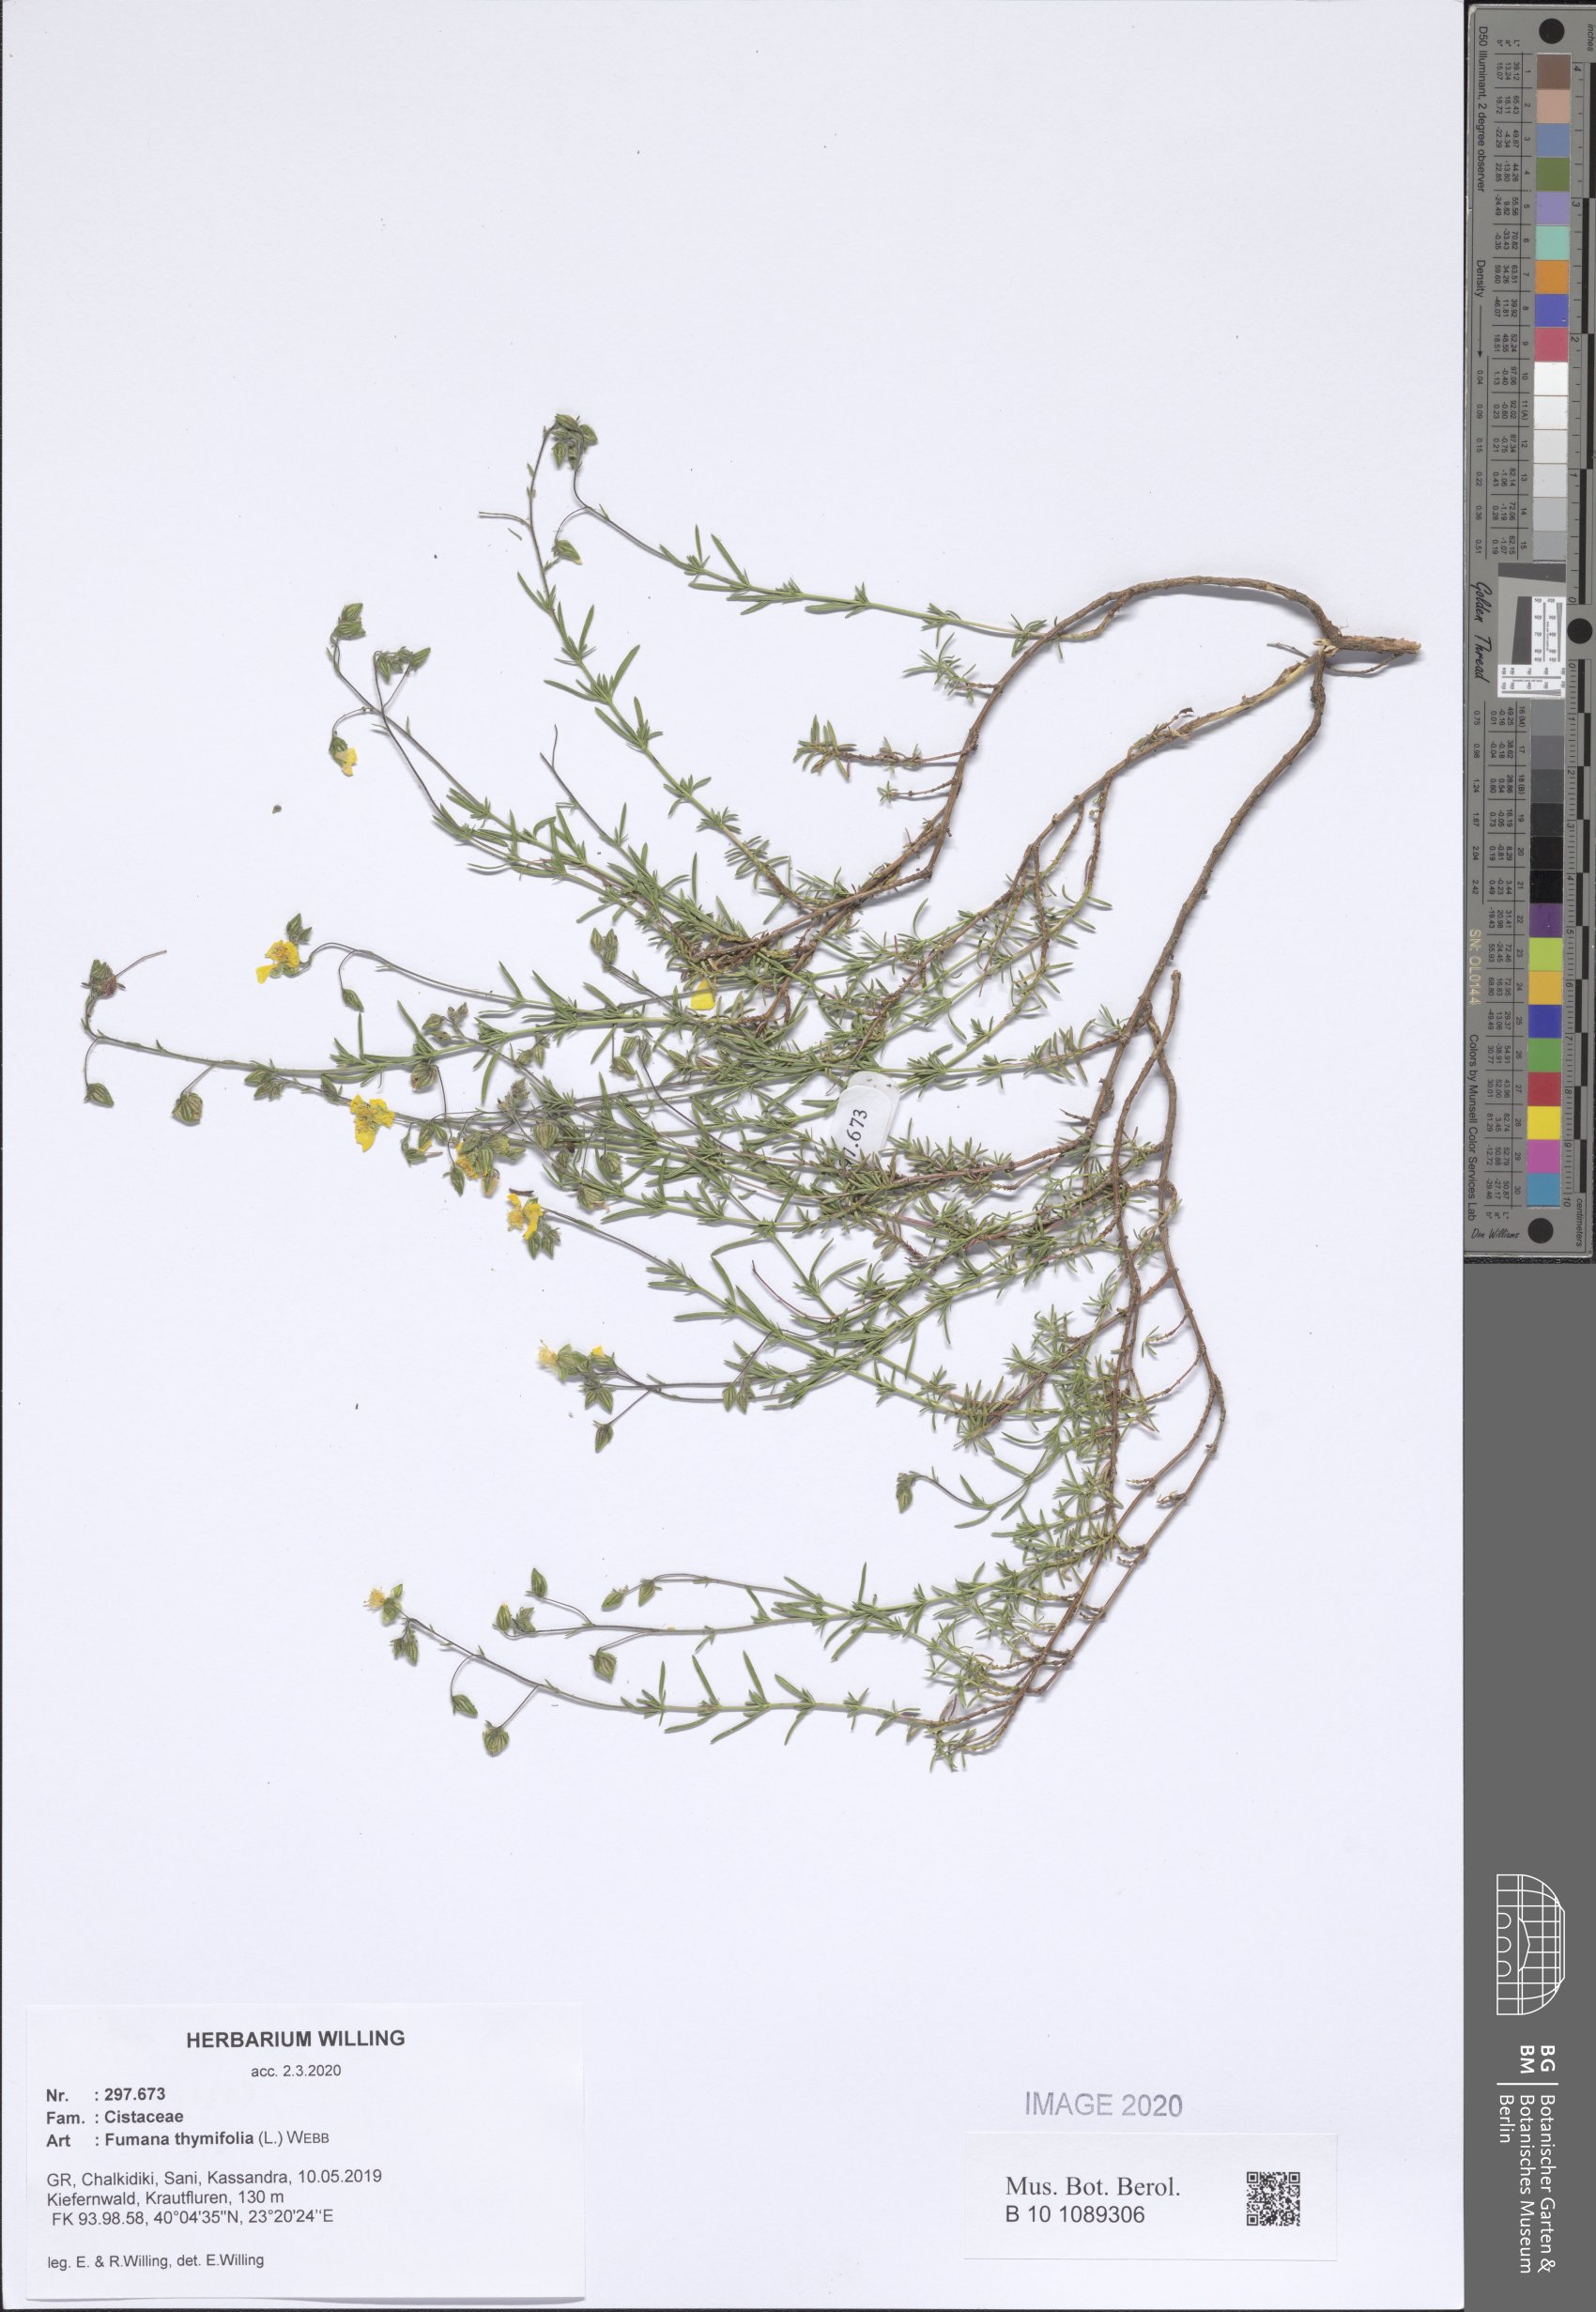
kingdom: Plantae
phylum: Tracheophyta
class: Magnoliopsida
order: Malvales
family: Cistaceae
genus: Fumana
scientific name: Fumana thymifolia
